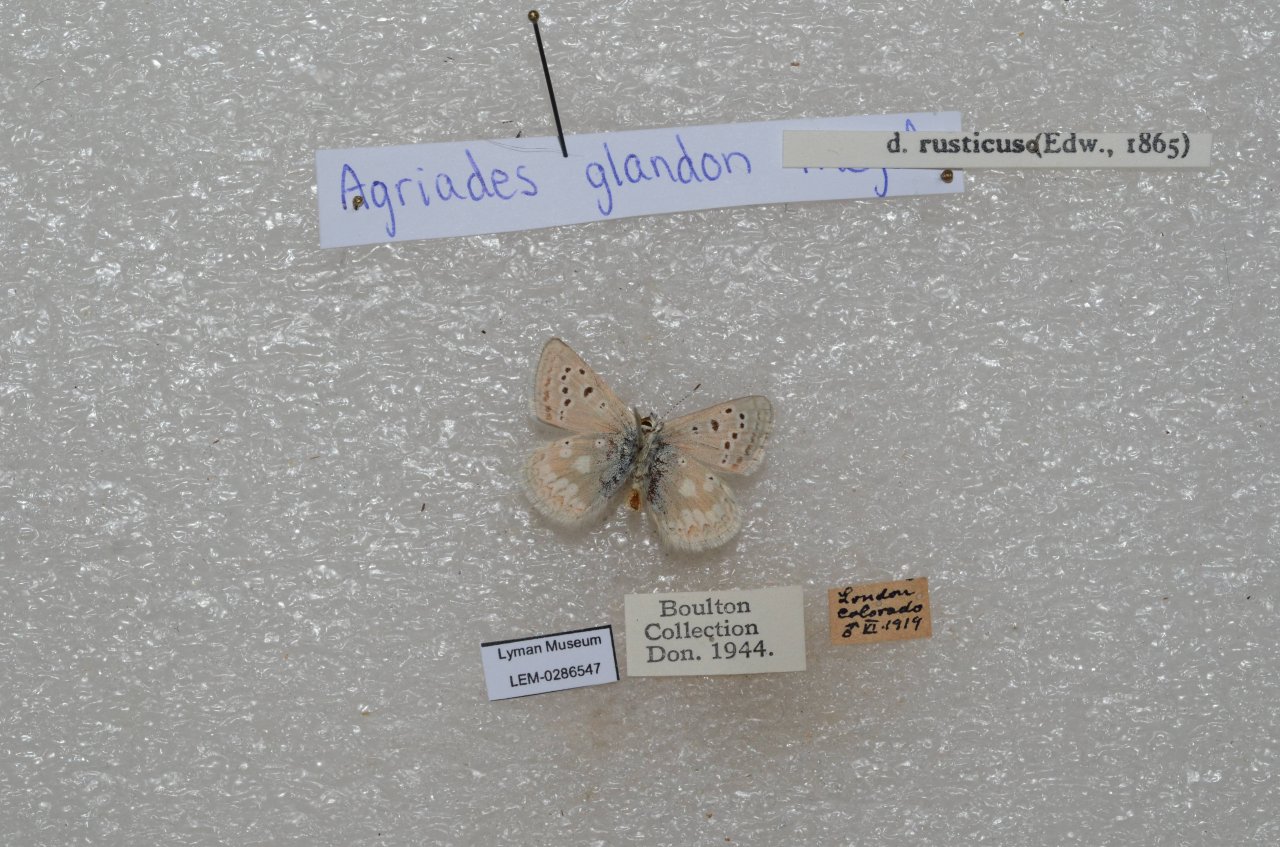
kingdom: Animalia
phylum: Arthropoda
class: Insecta
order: Lepidoptera
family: Lycaenidae
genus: Agriades
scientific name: Agriades glandon
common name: Arctic Blue
